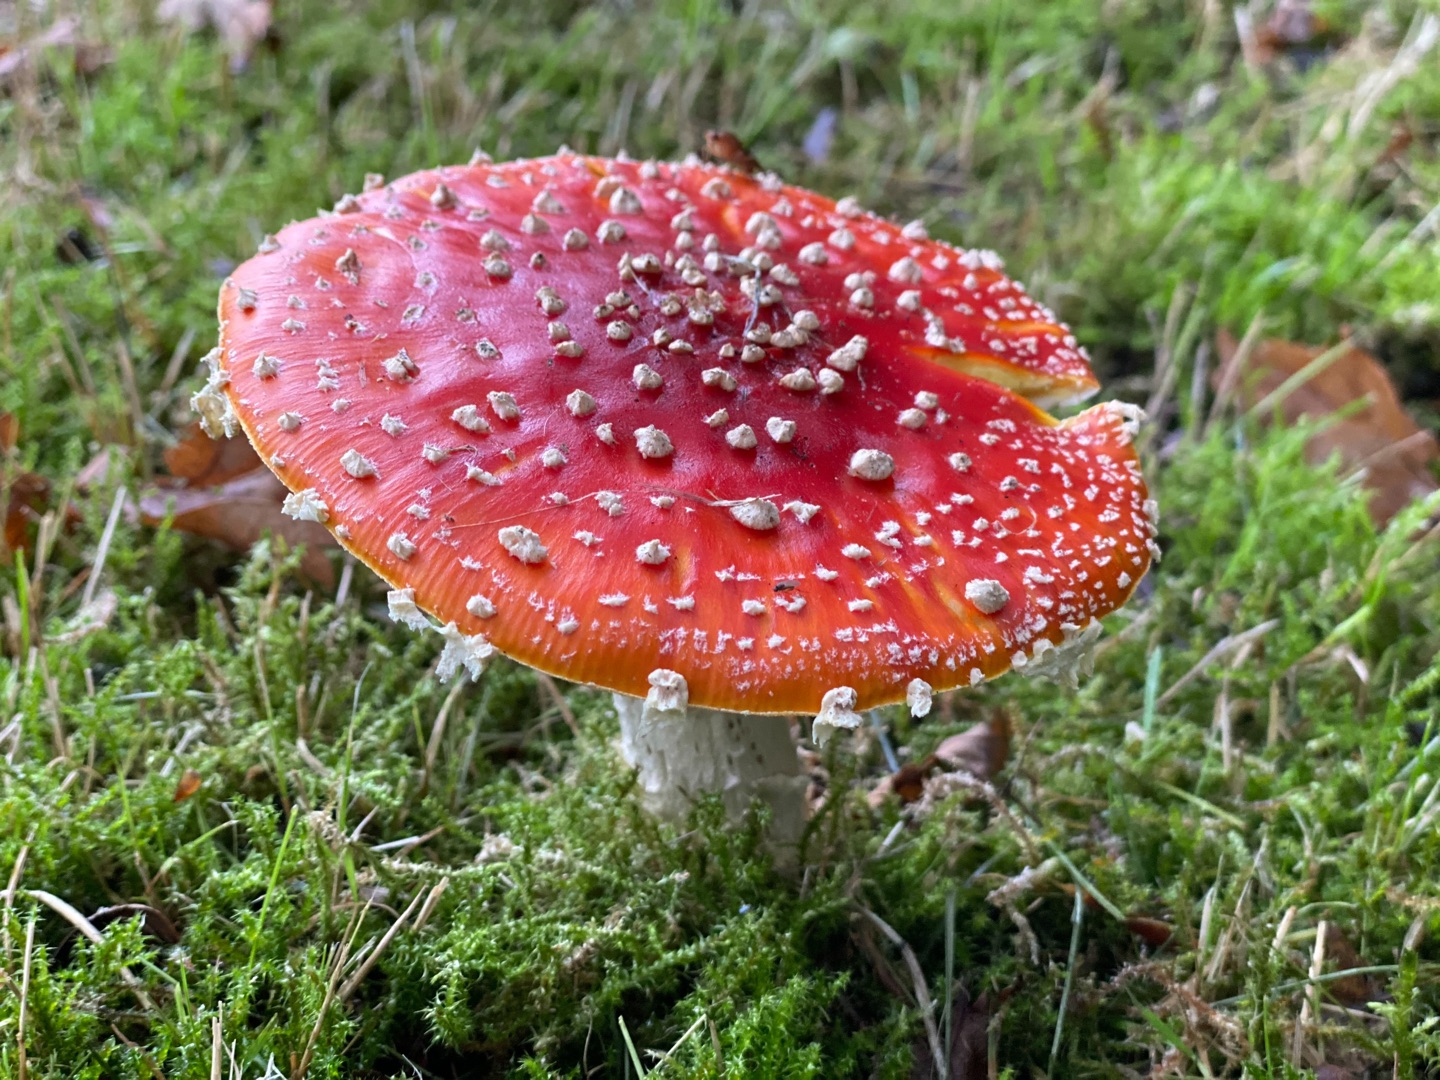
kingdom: Fungi
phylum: Basidiomycota
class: Agaricomycetes
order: Agaricales
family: Amanitaceae
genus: Amanita
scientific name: Amanita muscaria
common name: Rød fluesvamp
